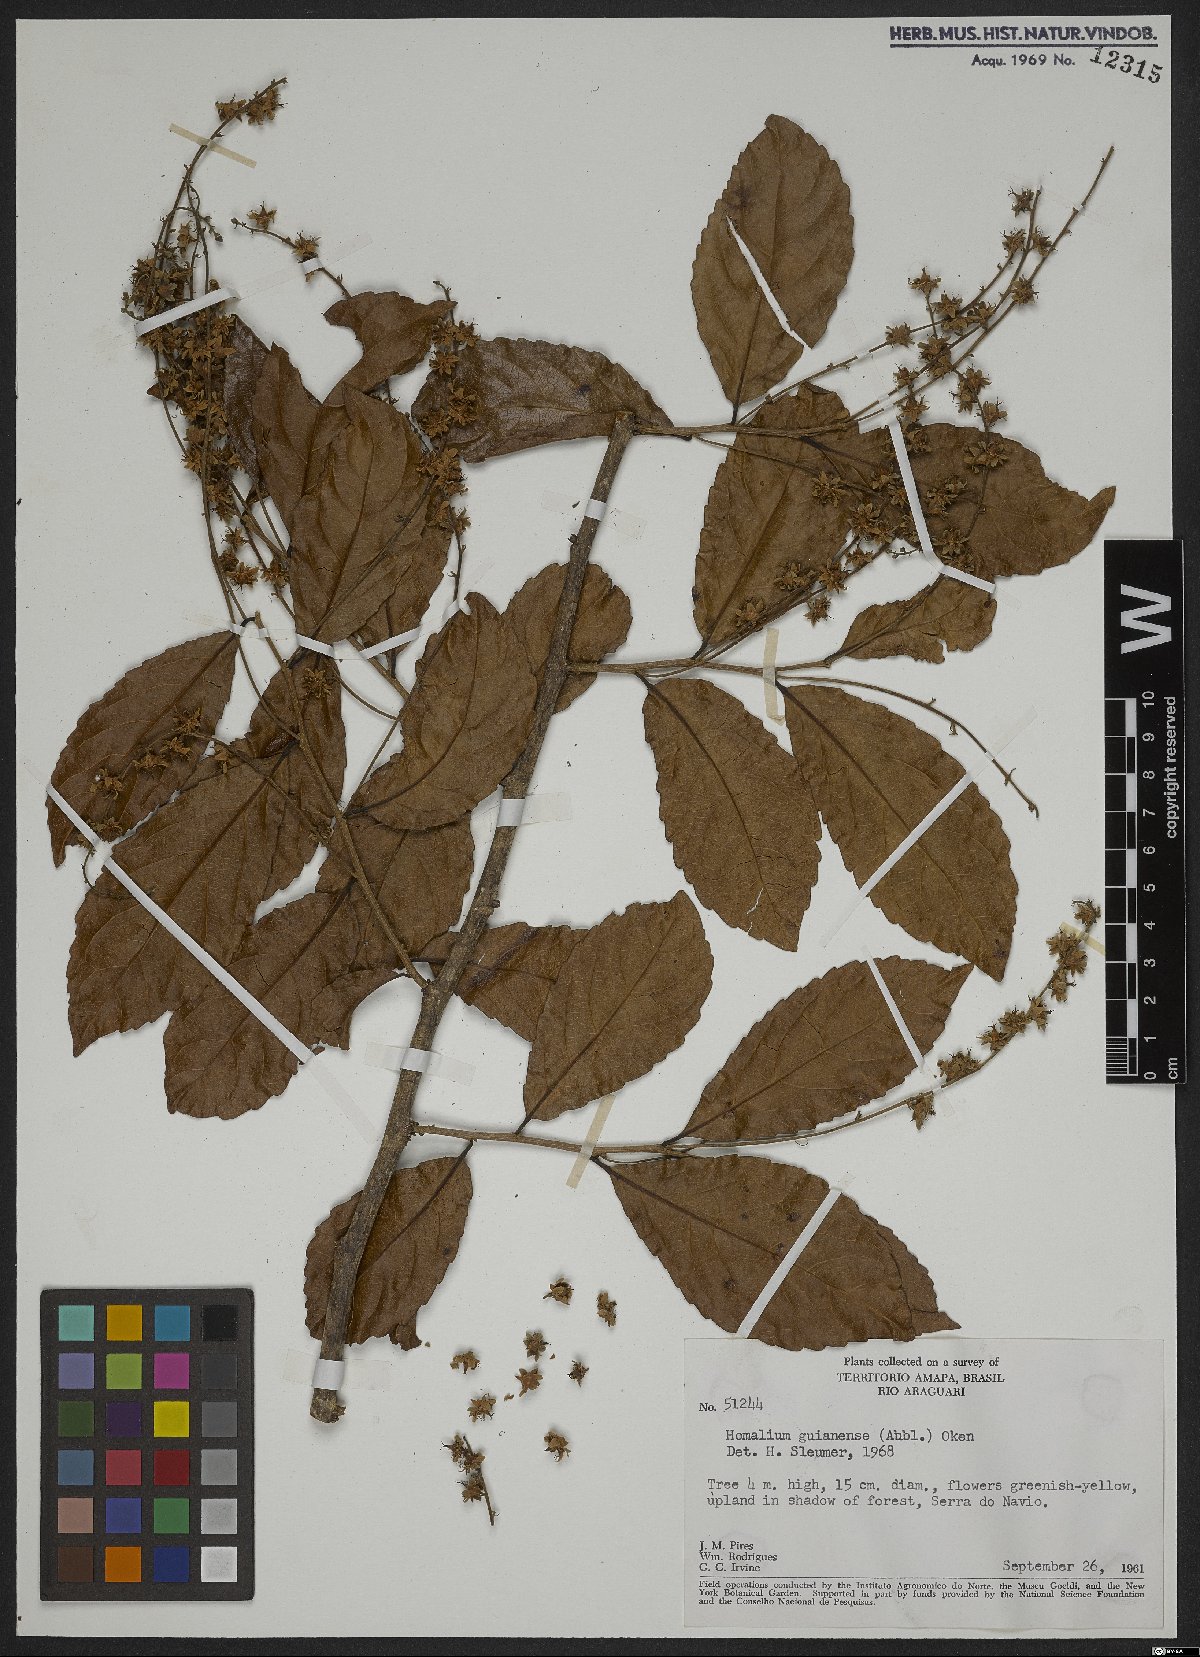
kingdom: Plantae
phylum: Tracheophyta
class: Magnoliopsida
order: Malpighiales
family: Salicaceae
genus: Homalium
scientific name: Homalium guianense
